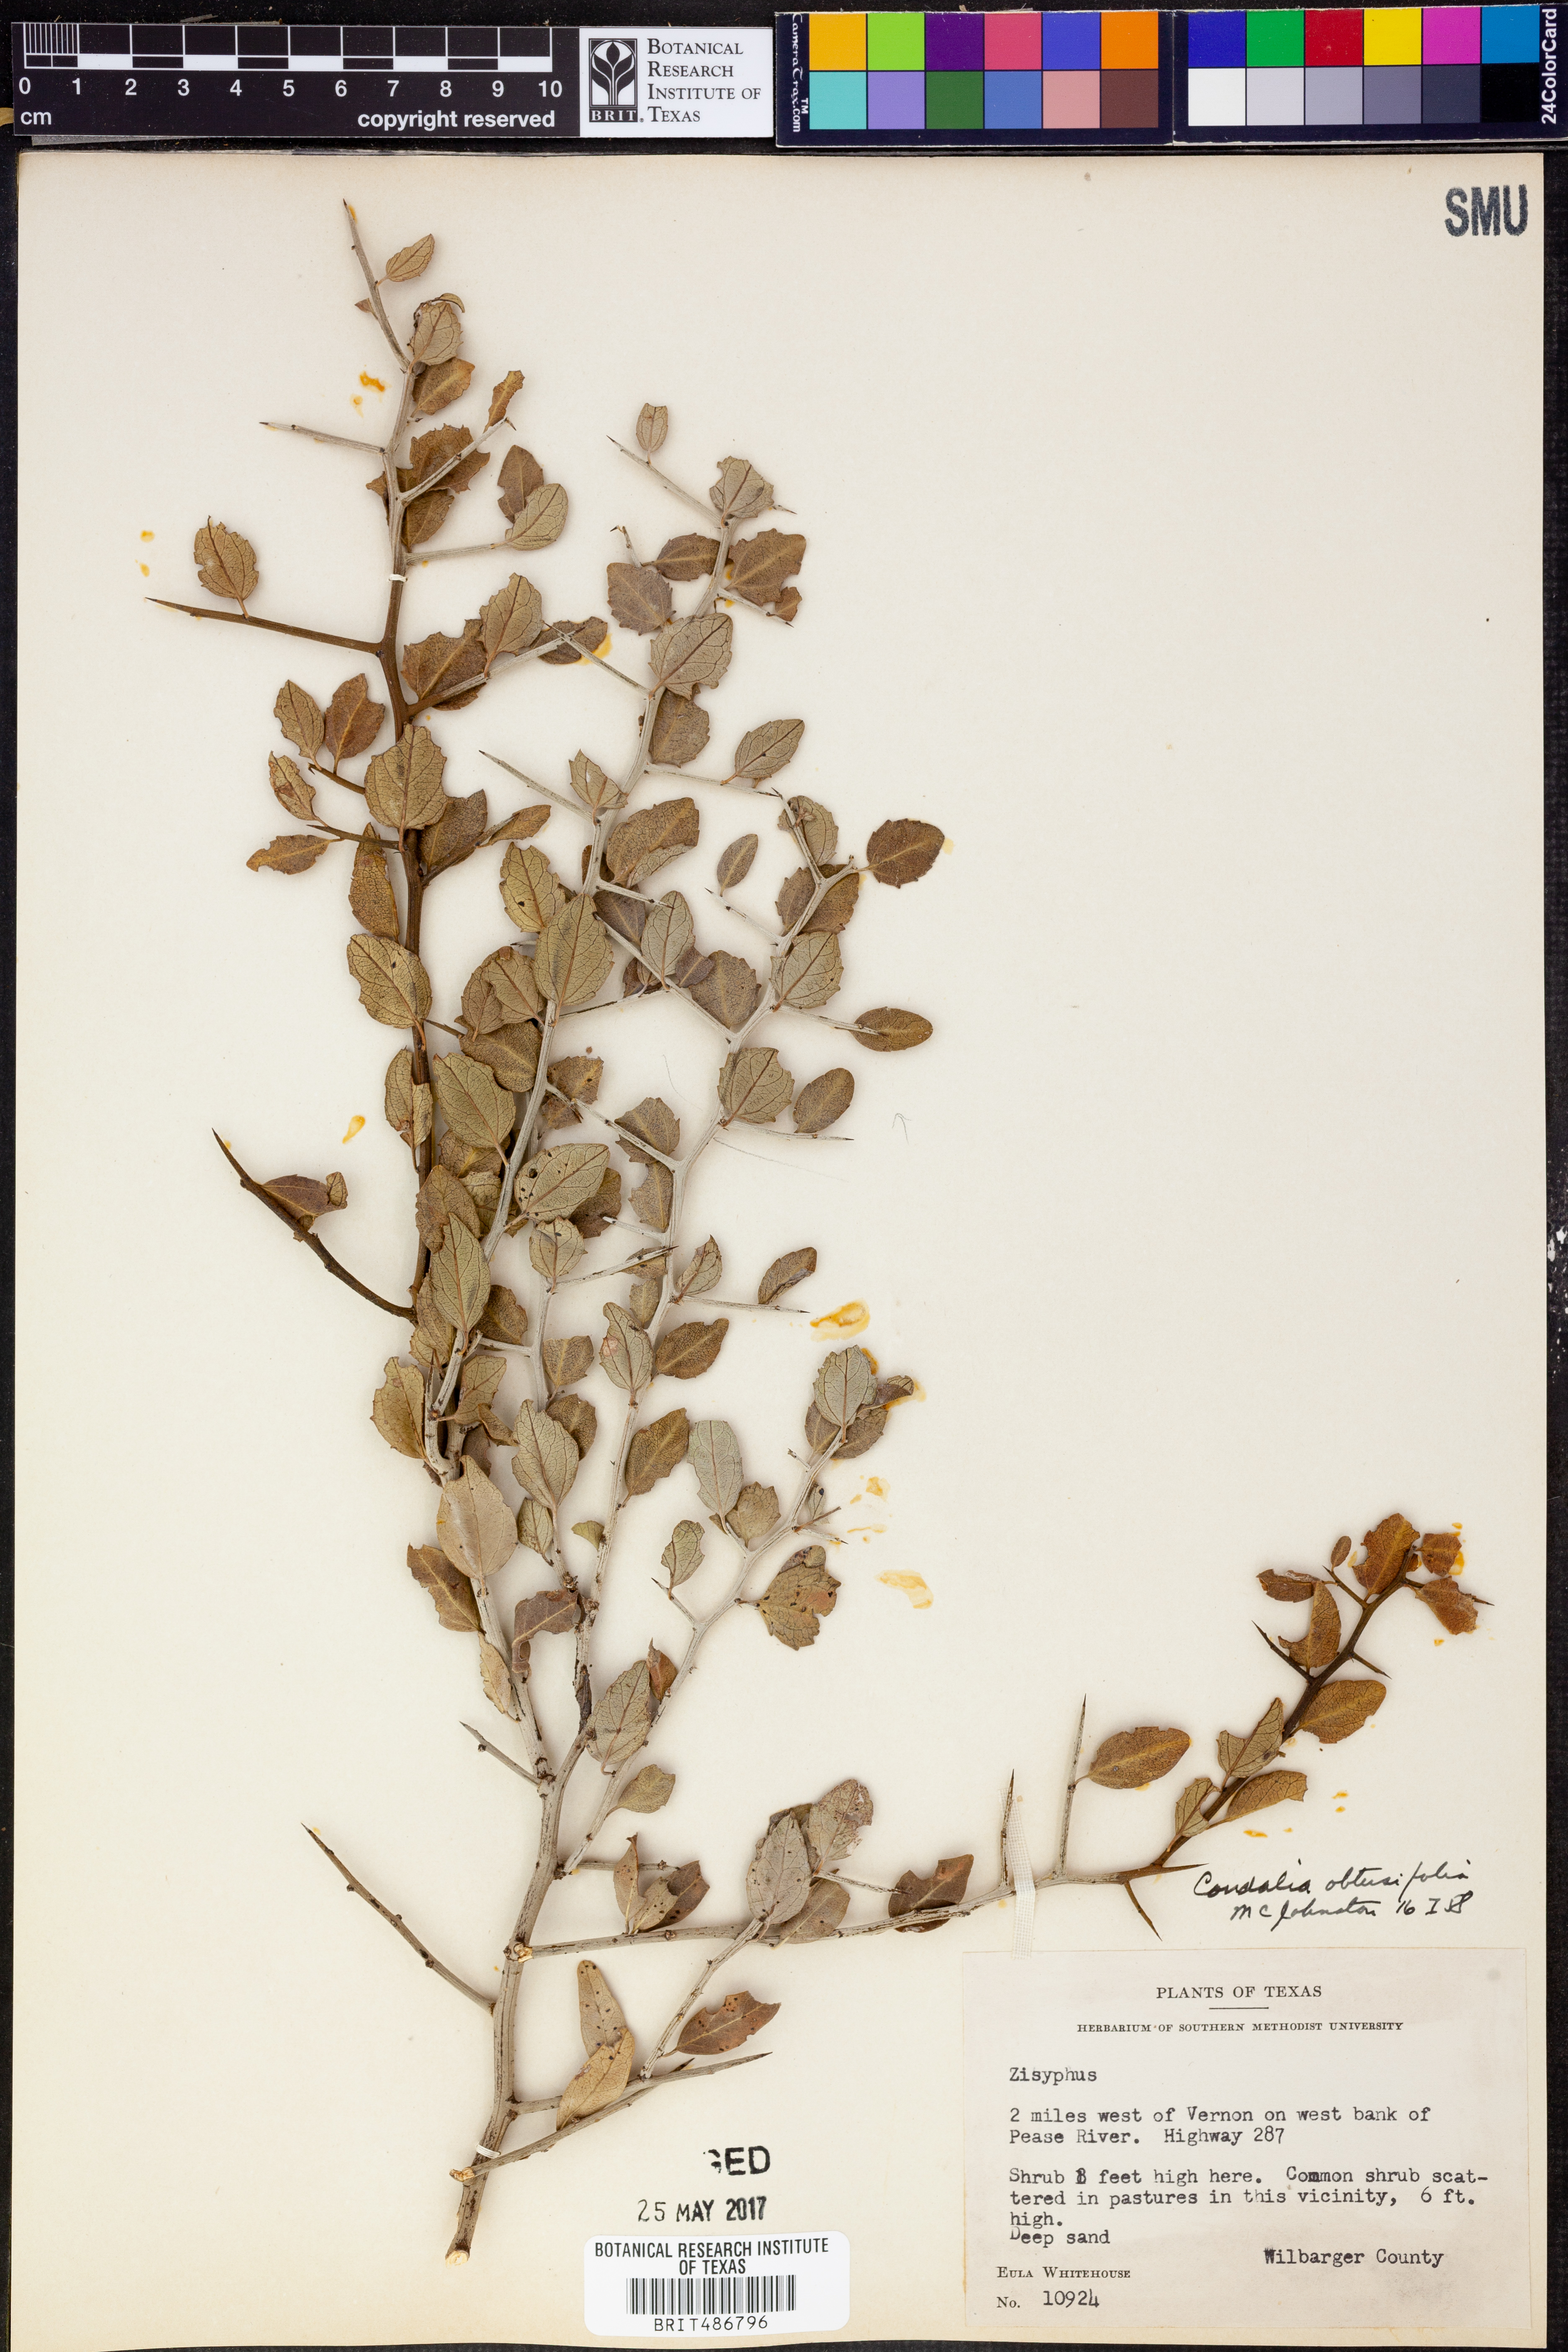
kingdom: Plantae
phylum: Tracheophyta
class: Magnoliopsida
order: Rosales
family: Rhamnaceae
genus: Sarcomphalus
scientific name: Sarcomphalus obtusifolius
